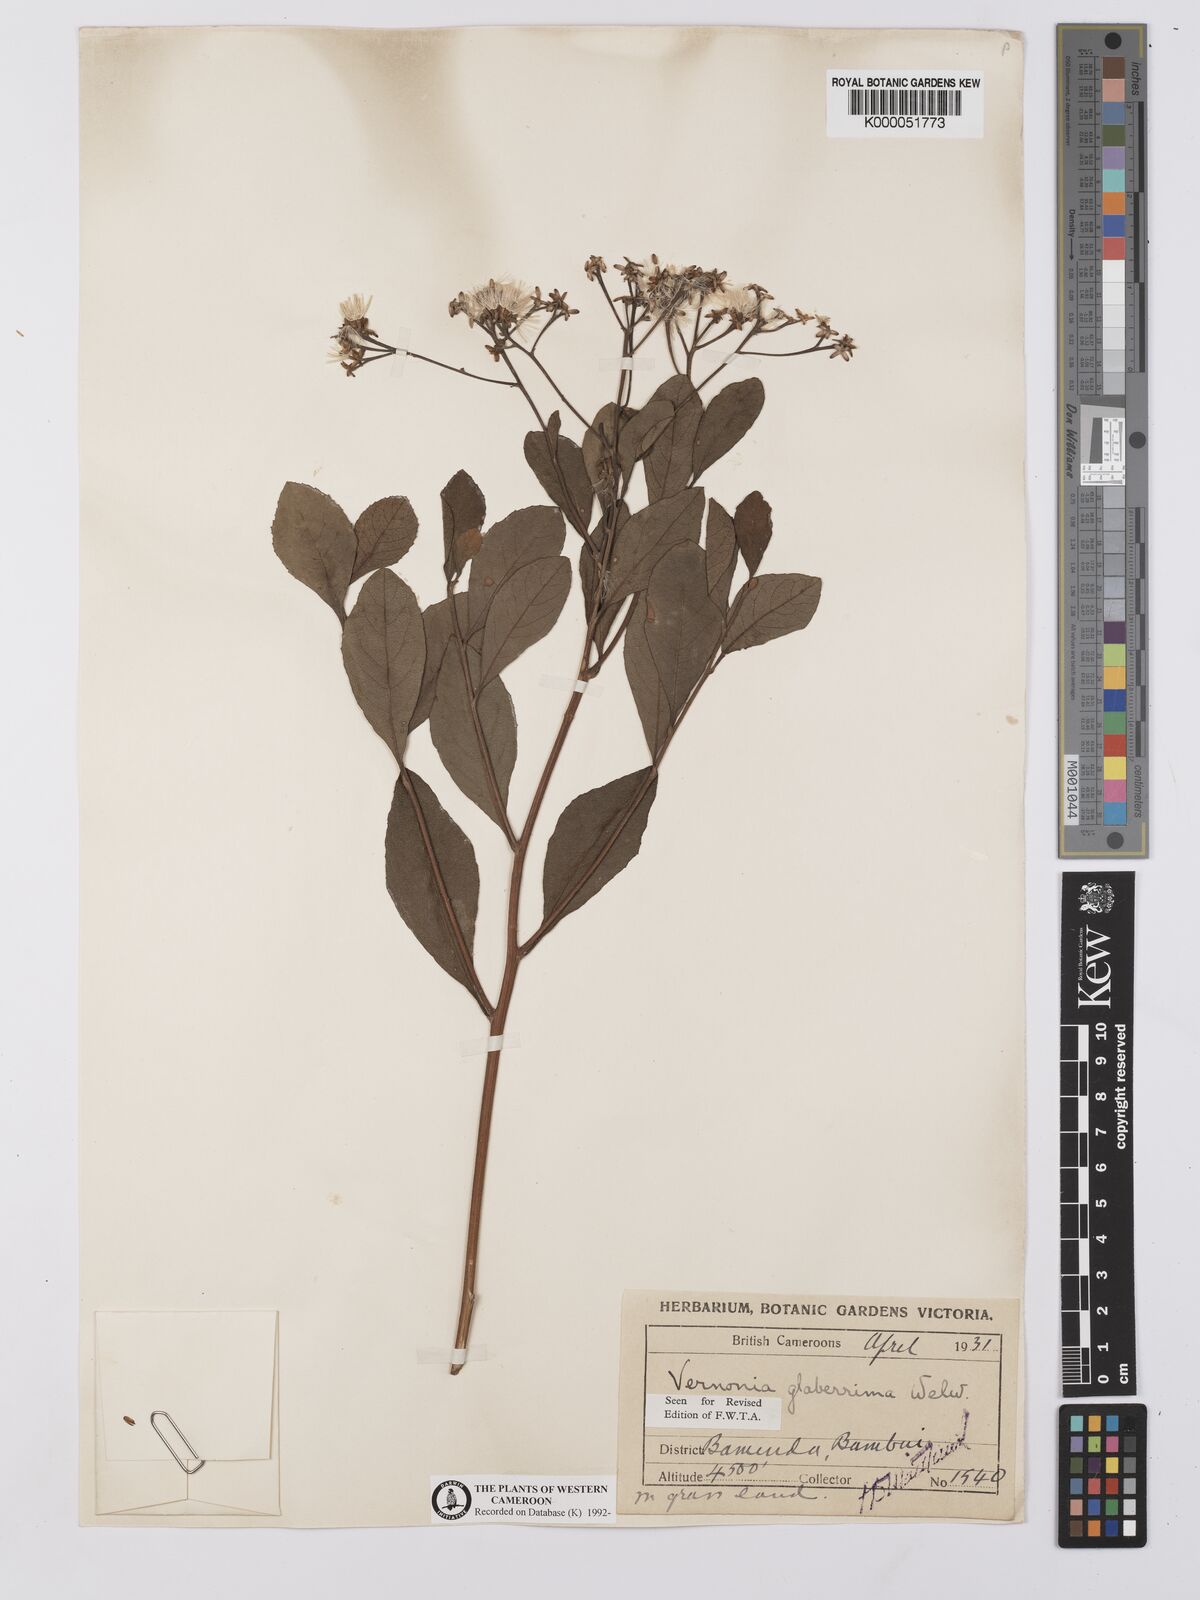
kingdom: Plantae
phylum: Tracheophyta
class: Magnoliopsida
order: Asterales
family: Asteraceae
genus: Vernonia
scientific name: Vernonia
